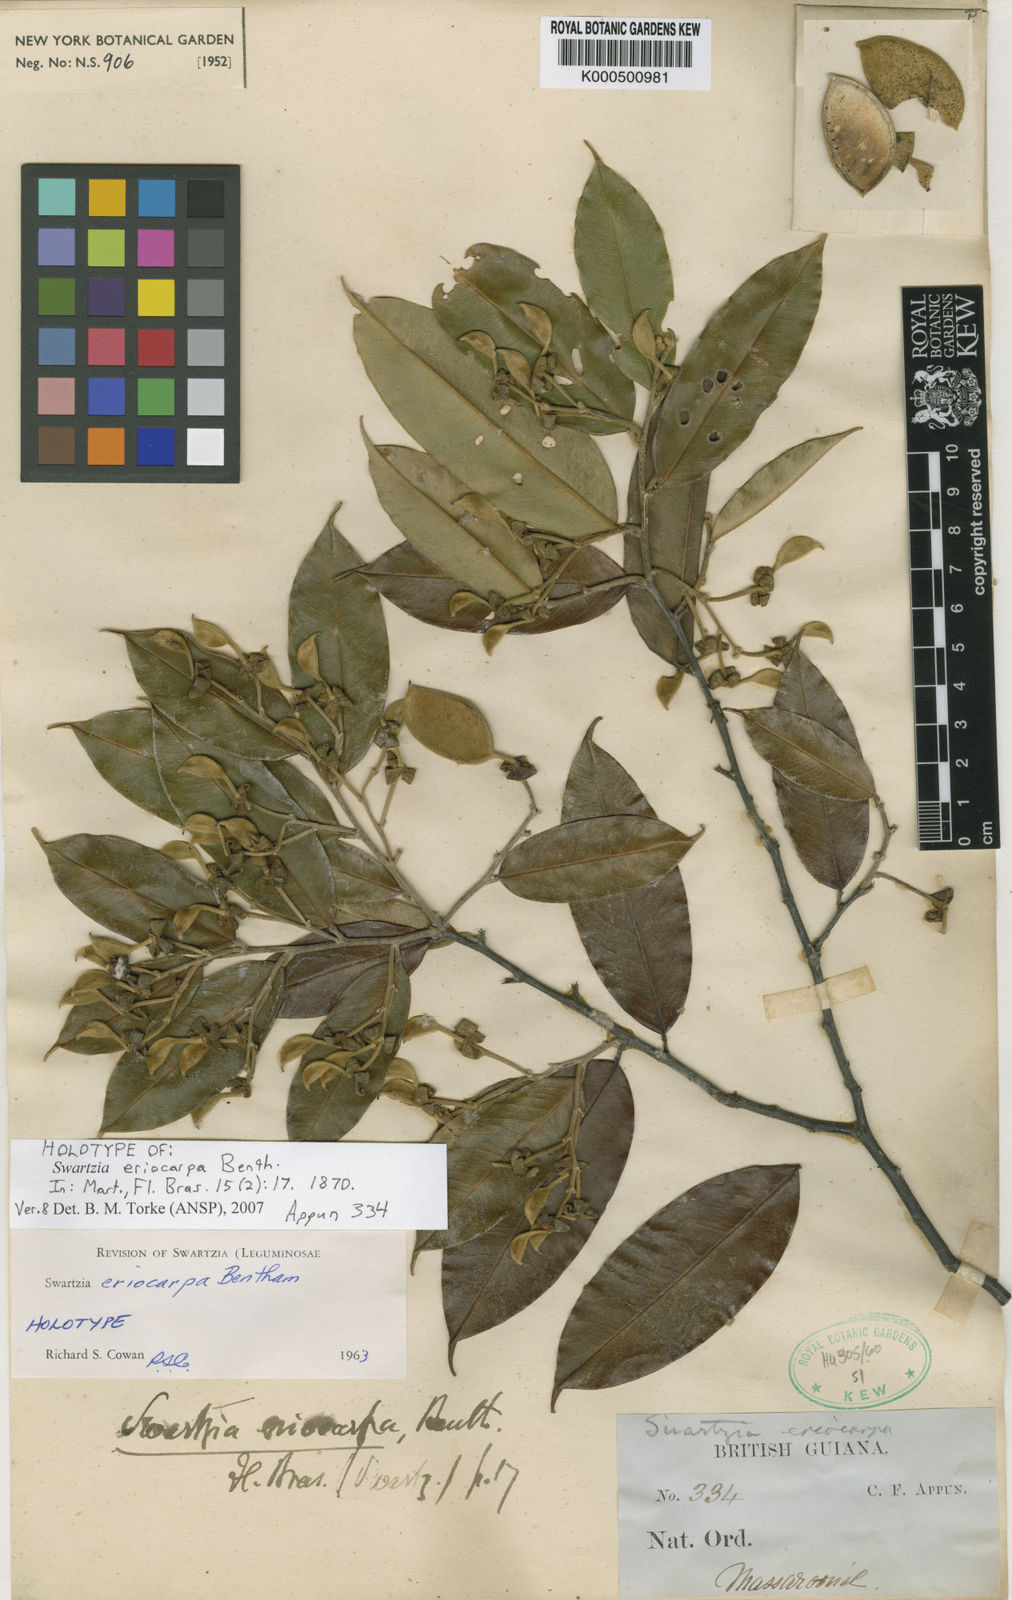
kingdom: Plantae
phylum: Tracheophyta
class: Magnoliopsida
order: Fabales
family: Fabaceae
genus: Swartzia
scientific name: Swartzia eriocarpa
